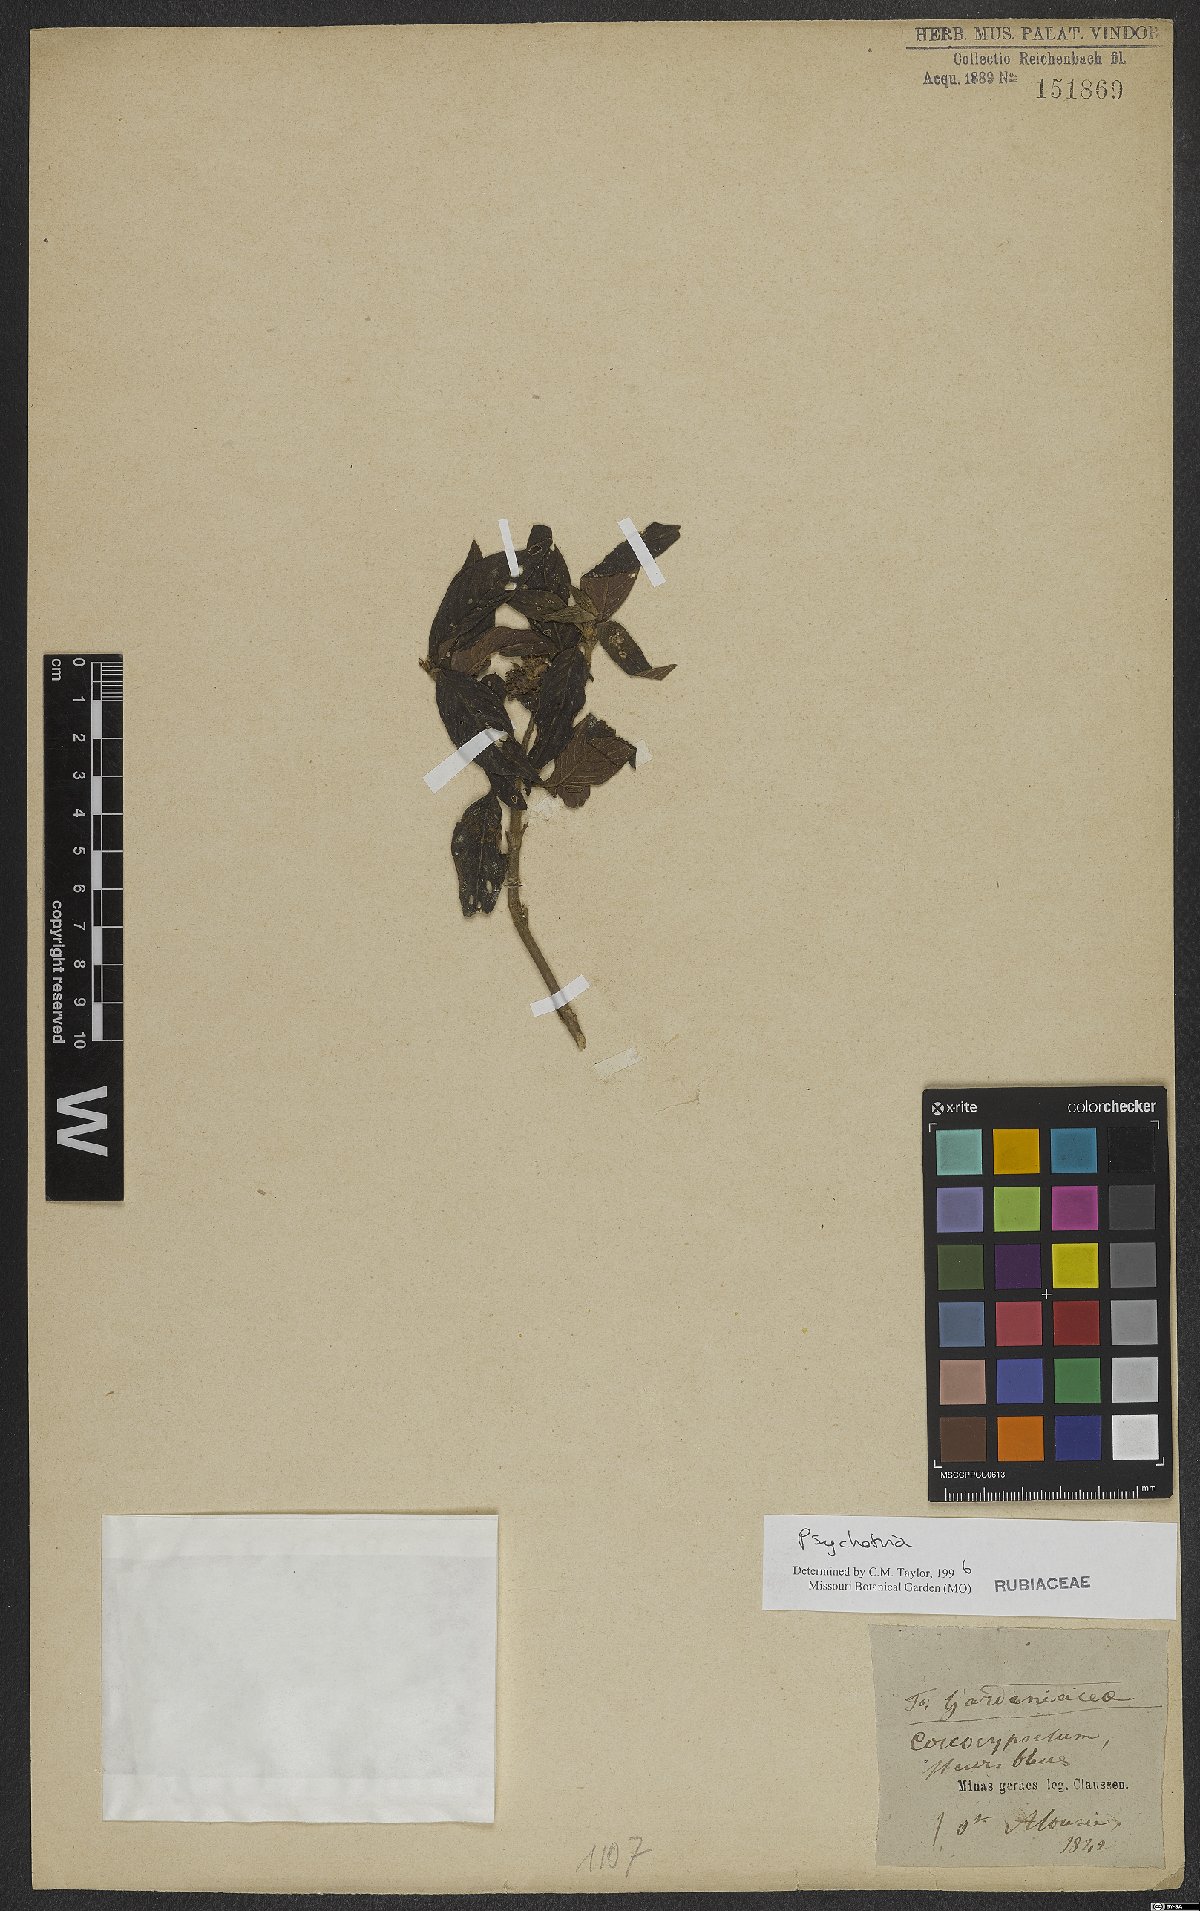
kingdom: Plantae
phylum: Tracheophyta
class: Magnoliopsida
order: Gentianales
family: Rubiaceae
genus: Psychotria
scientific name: Psychotria
